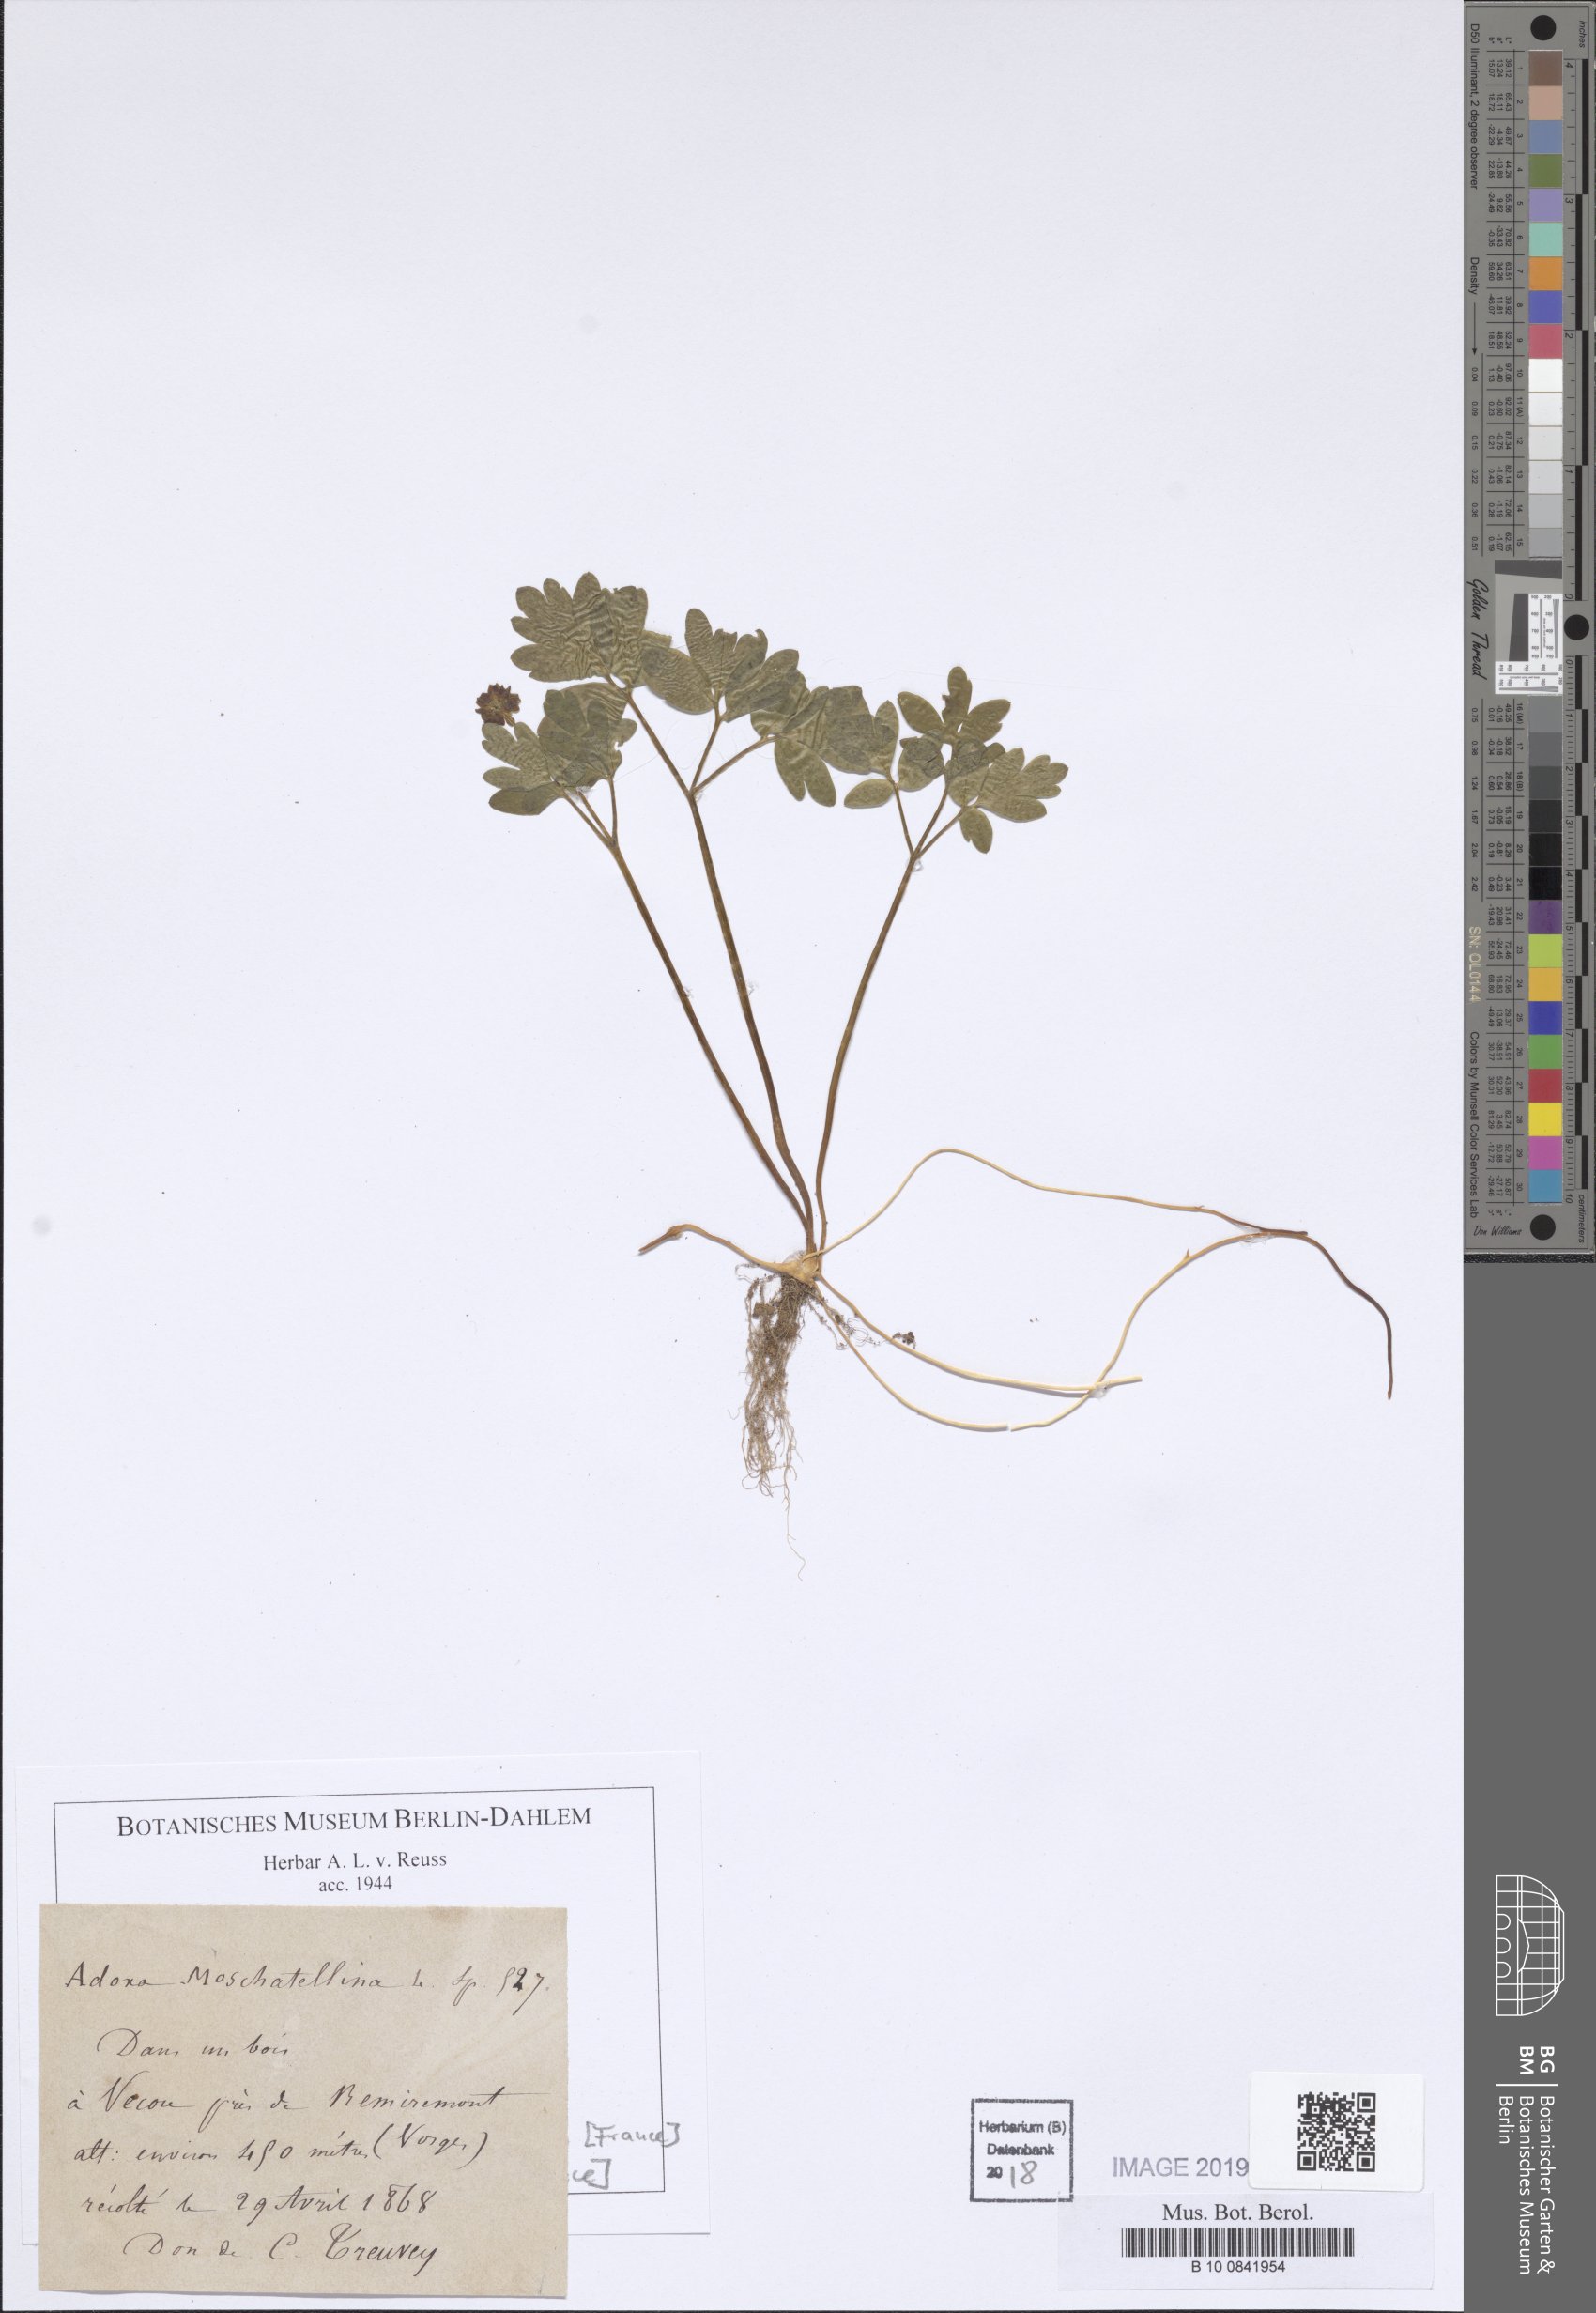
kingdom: Plantae
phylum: Tracheophyta
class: Magnoliopsida
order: Dipsacales
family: Viburnaceae
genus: Adoxa
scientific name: Adoxa moschatellina
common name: Moschatel
